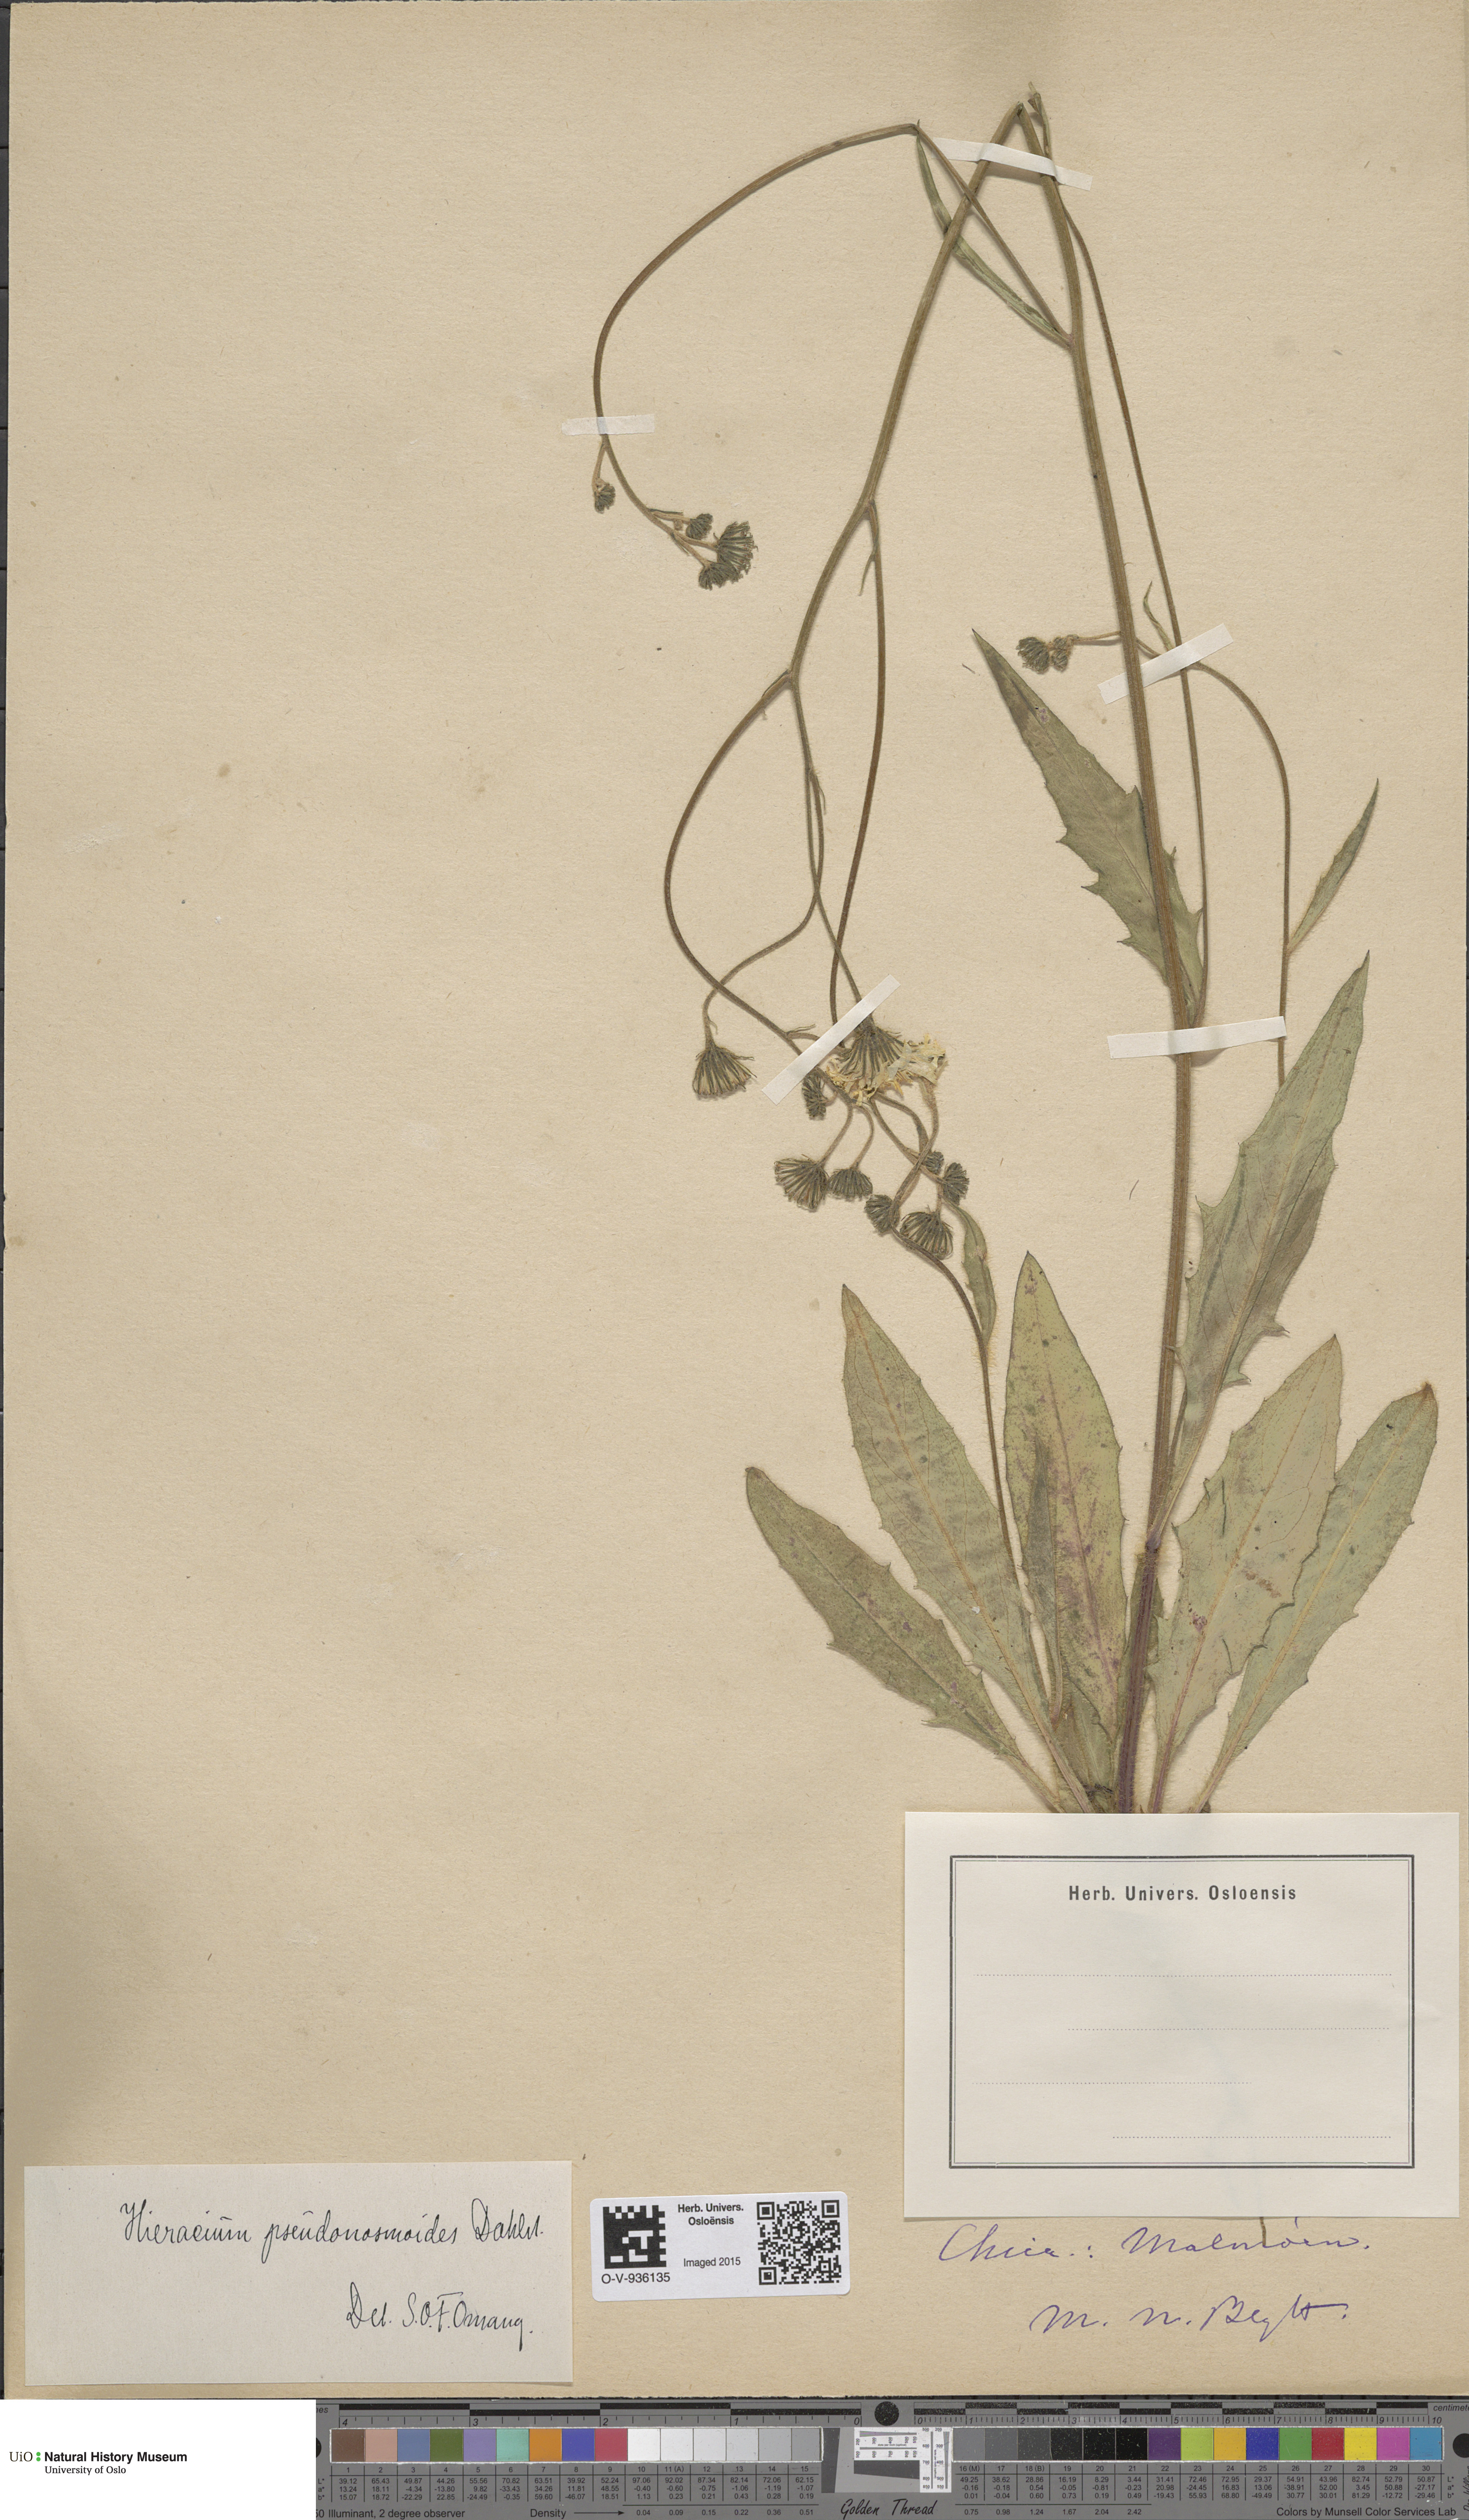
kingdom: Plantae
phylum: Tracheophyta
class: Magnoliopsida
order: Asterales
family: Asteraceae
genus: Hieracium
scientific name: Hieracium saxifragum
